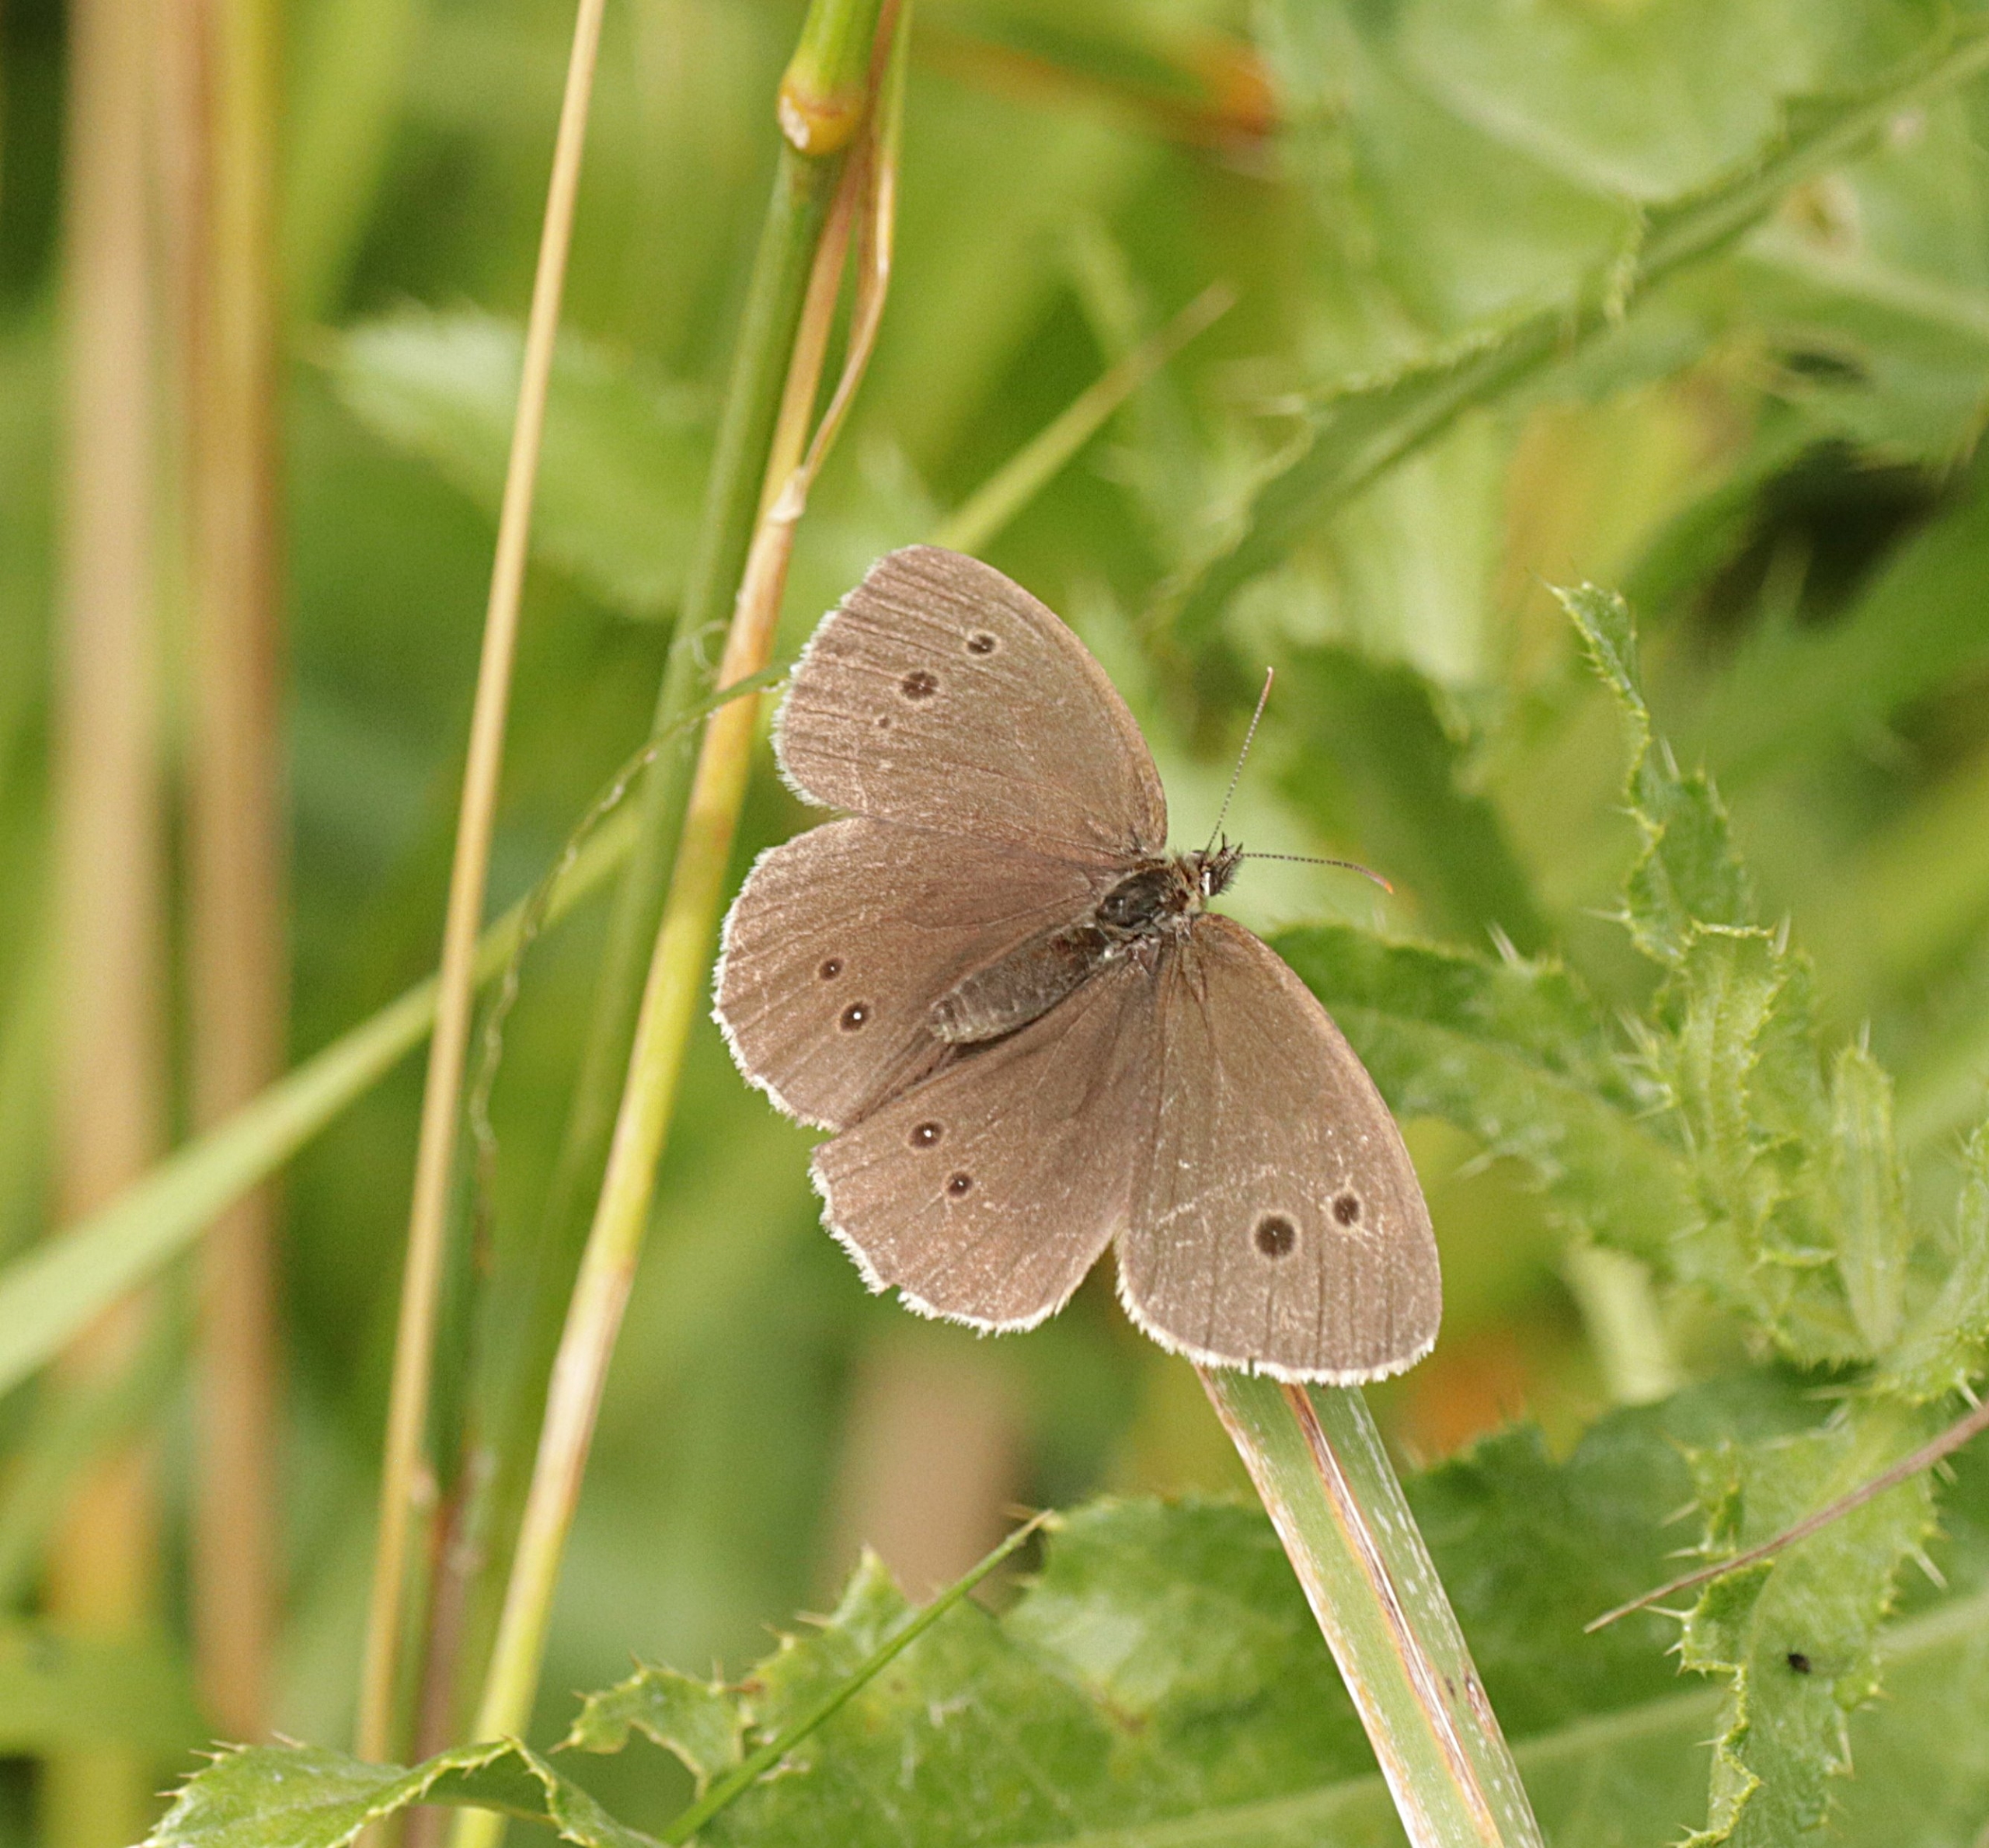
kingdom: Animalia
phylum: Arthropoda
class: Insecta
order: Lepidoptera
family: Nymphalidae
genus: Aphantopus
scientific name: Aphantopus hyperantus
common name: Engrandøje
